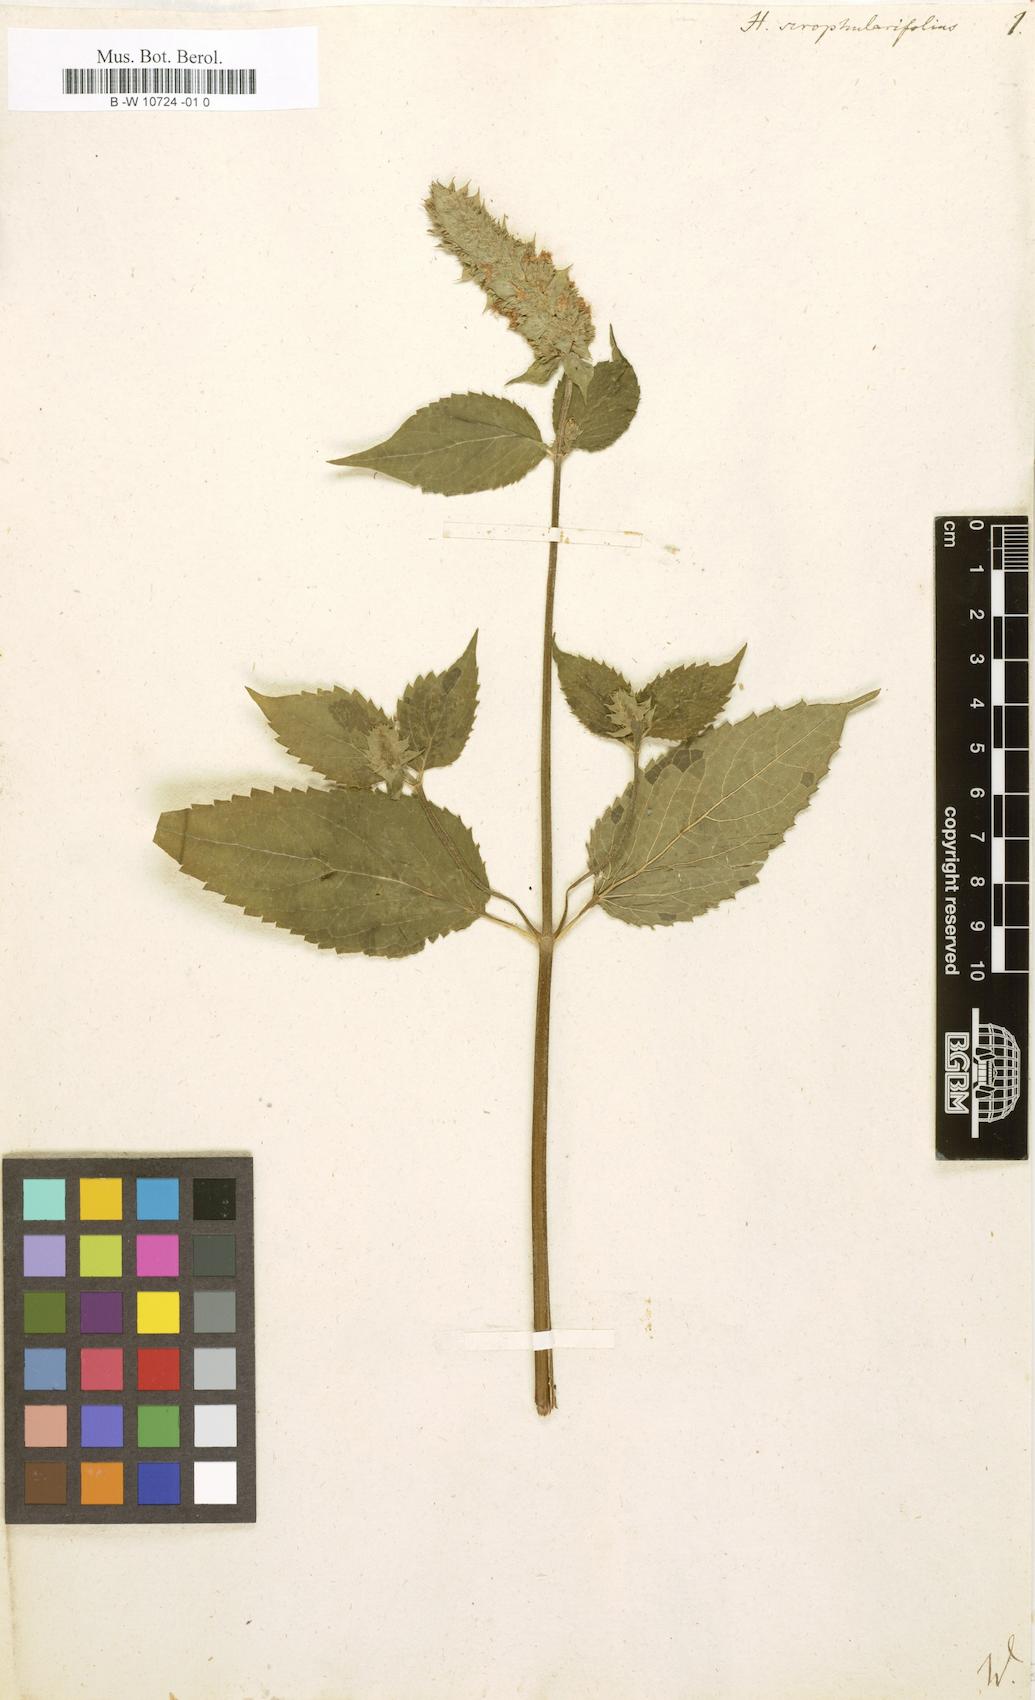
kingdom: Plantae
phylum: Tracheophyta
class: Magnoliopsida
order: Lamiales
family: Lamiaceae
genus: Agastache
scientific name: Agastache scrophulariifolia
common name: Figwort giant hyssop
